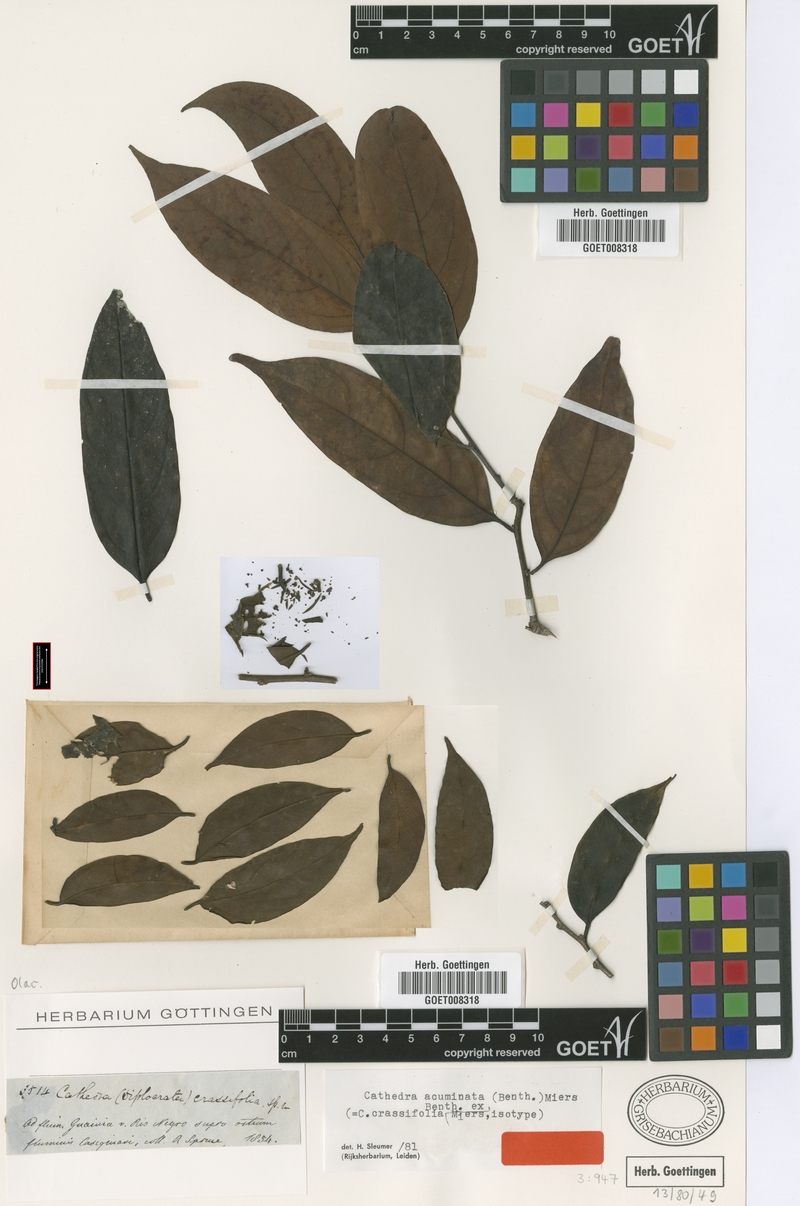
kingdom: Plantae
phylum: Tracheophyta
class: Magnoliopsida
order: Santalales
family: Aptandraceae
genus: Cathedra
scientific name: Cathedra acuminata
